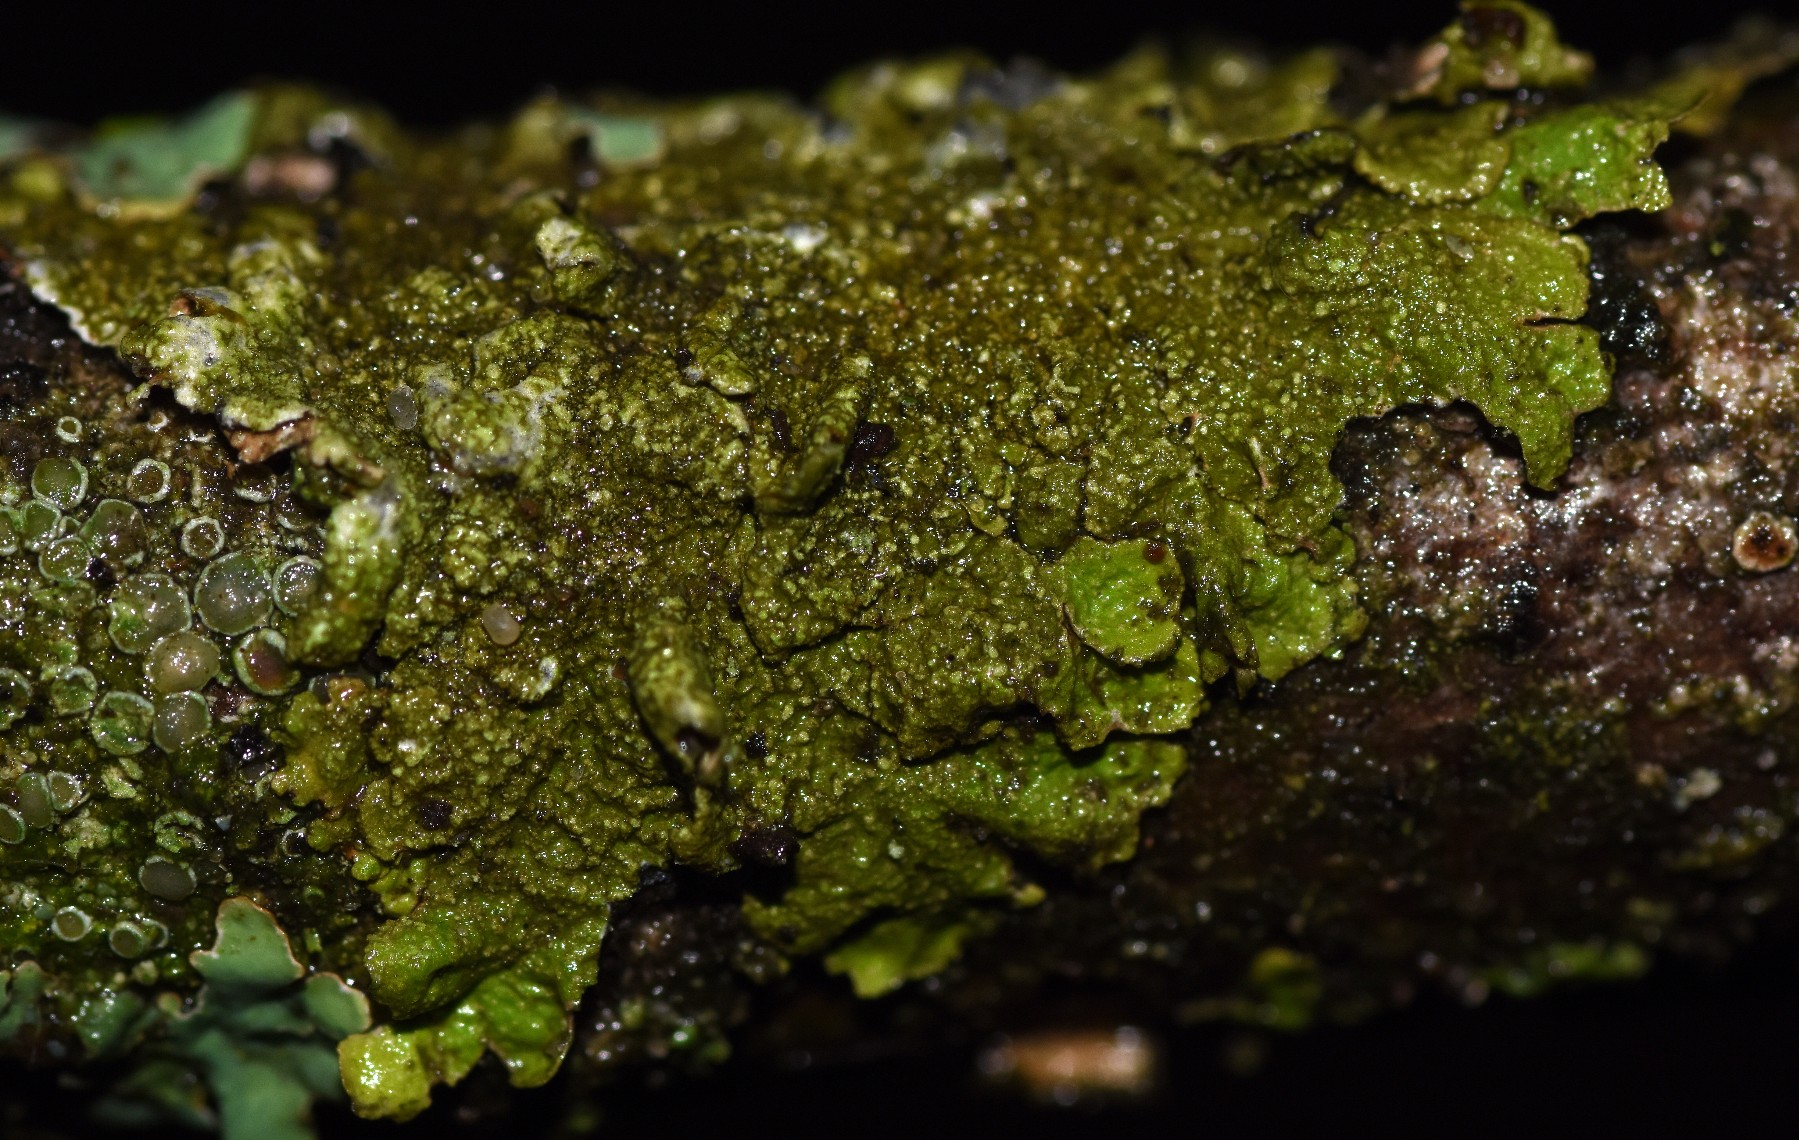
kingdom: Fungi
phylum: Ascomycota
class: Lecanoromycetes
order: Lecanorales
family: Parmeliaceae
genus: Melanelixia
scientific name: Melanelixia glabratula
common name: glinsende skållav
